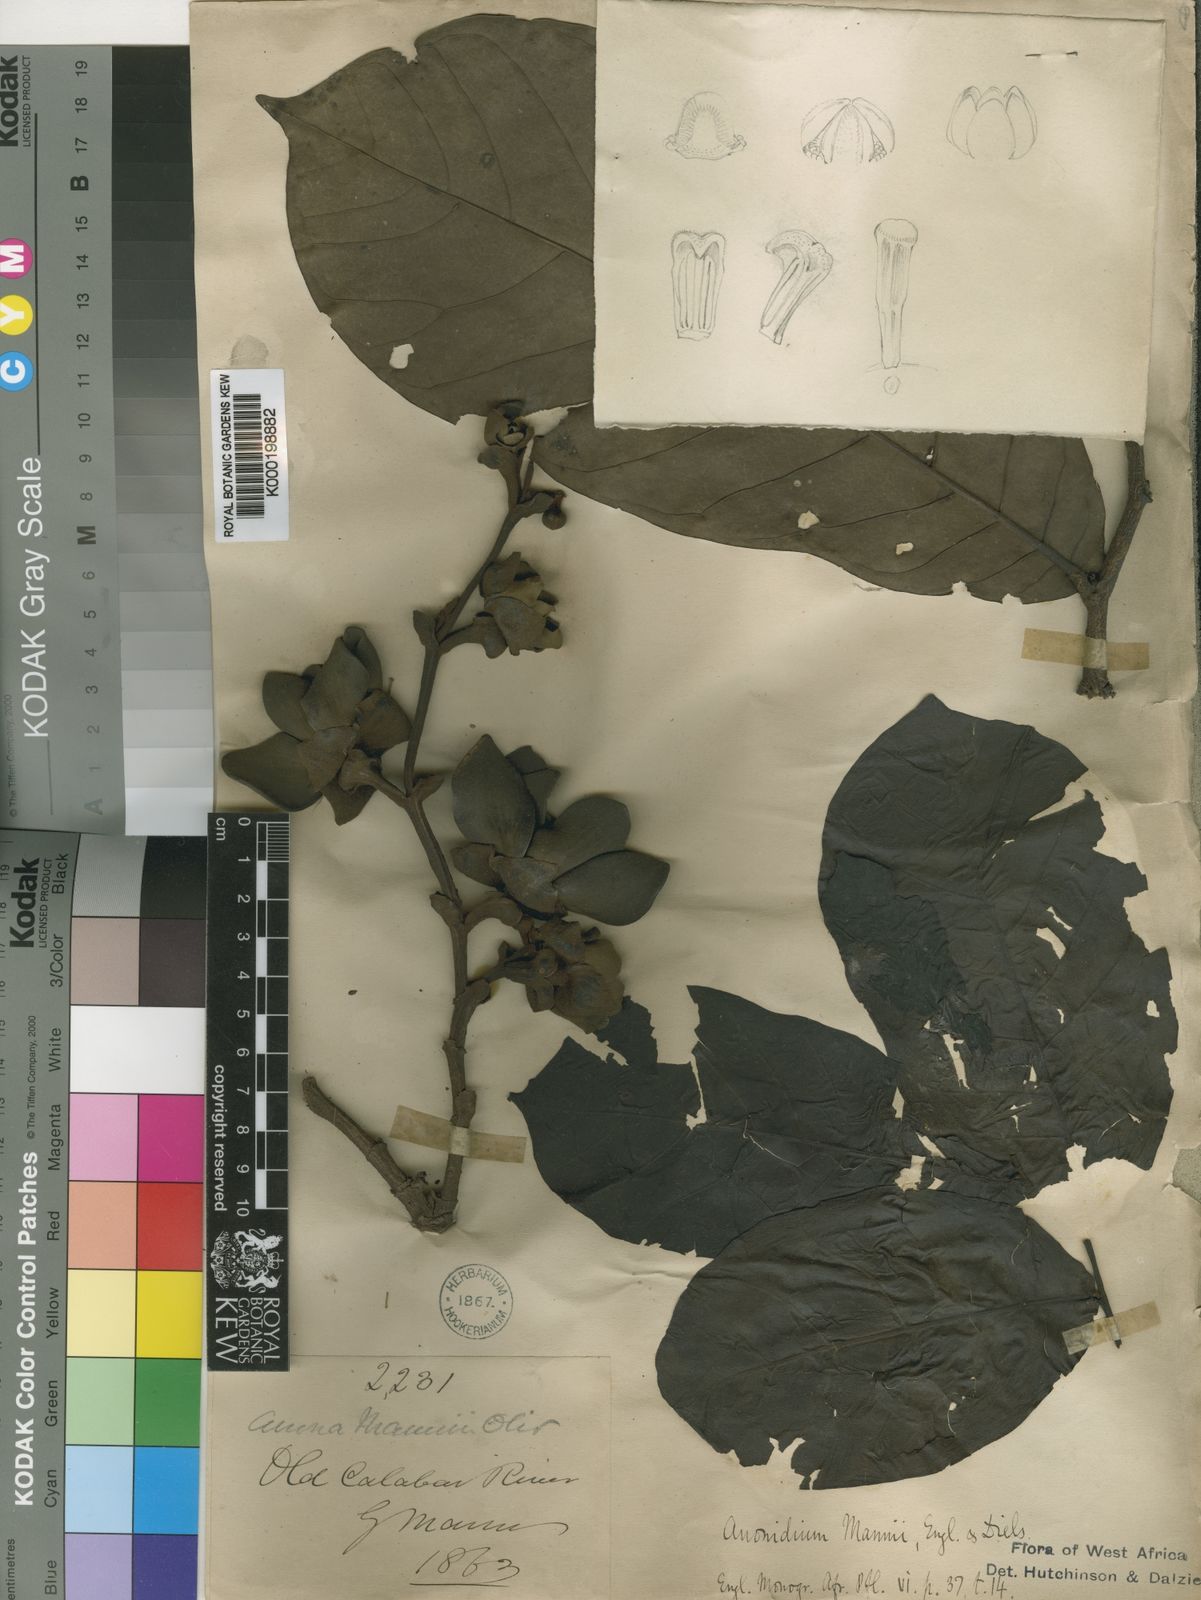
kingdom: Plantae
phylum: Tracheophyta
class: Magnoliopsida
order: Magnoliales
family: Annonaceae
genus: Anonidium
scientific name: Anonidium mannii
